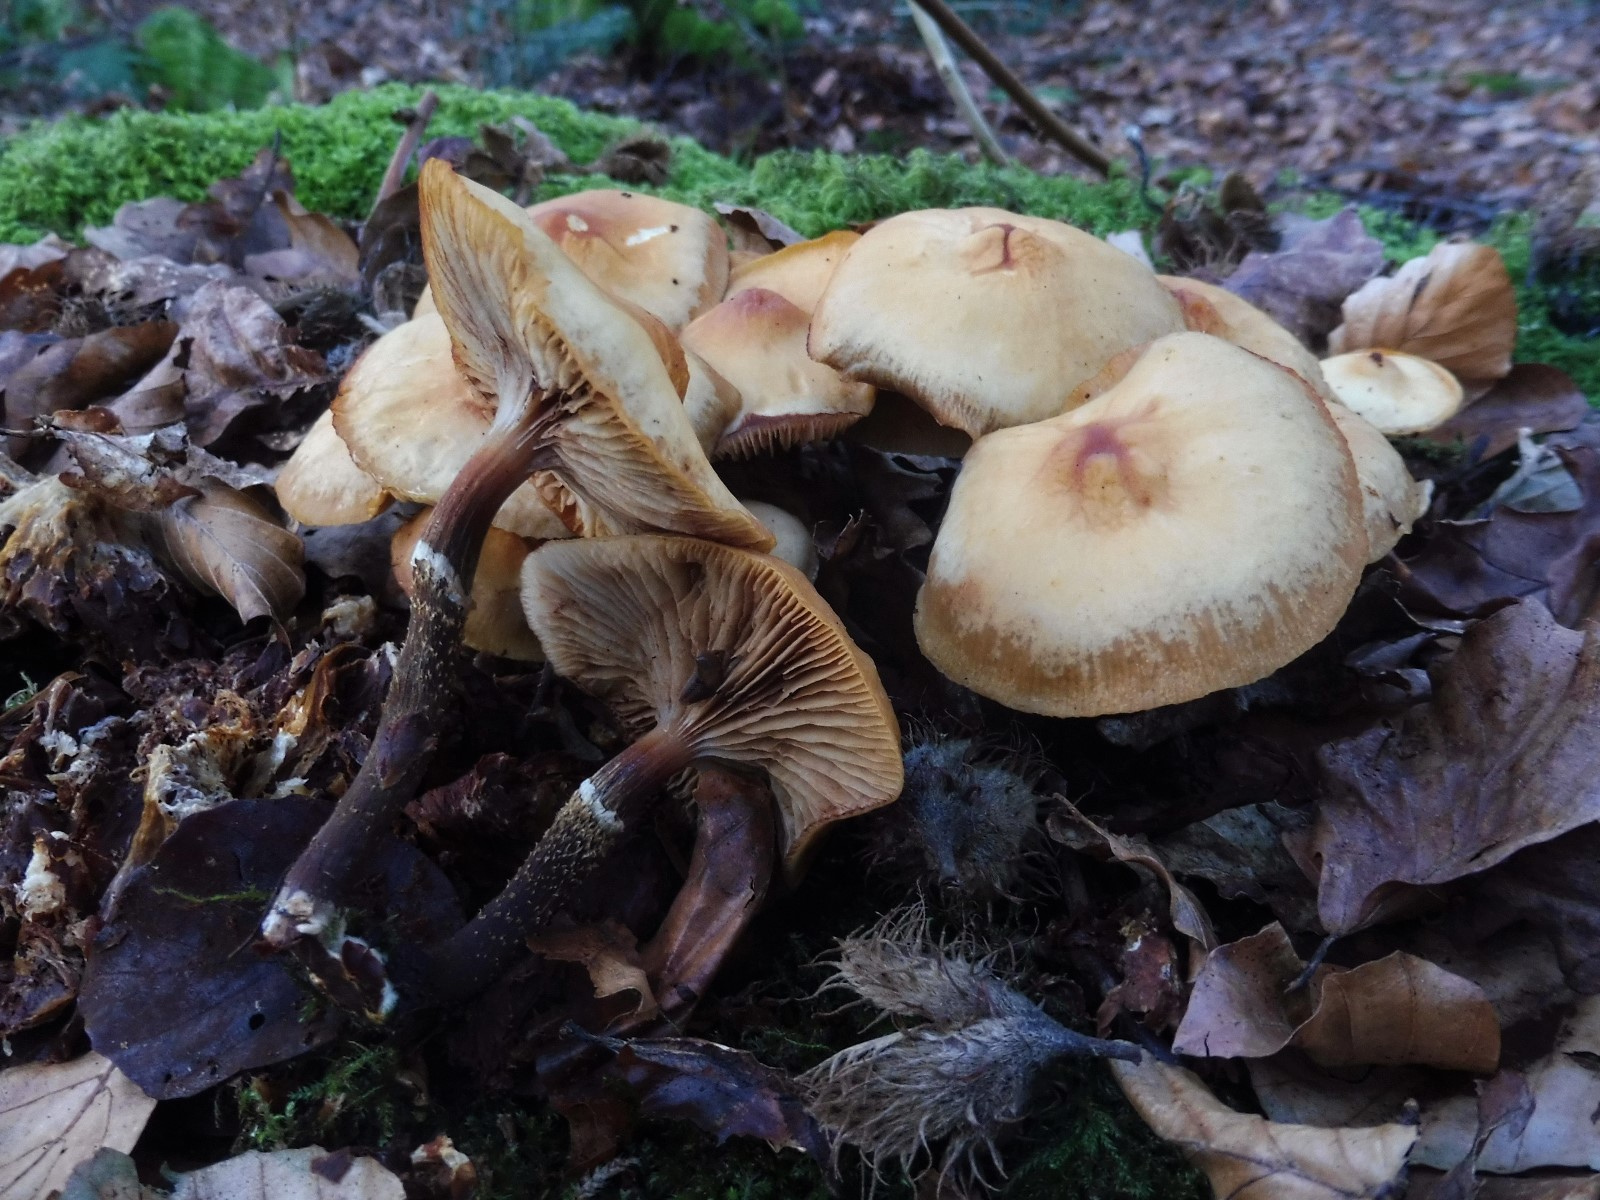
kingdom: Fungi
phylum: Basidiomycota
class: Agaricomycetes
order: Agaricales
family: Strophariaceae
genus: Kuehneromyces
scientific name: Kuehneromyces mutabilis
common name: foranderlig skælhat
